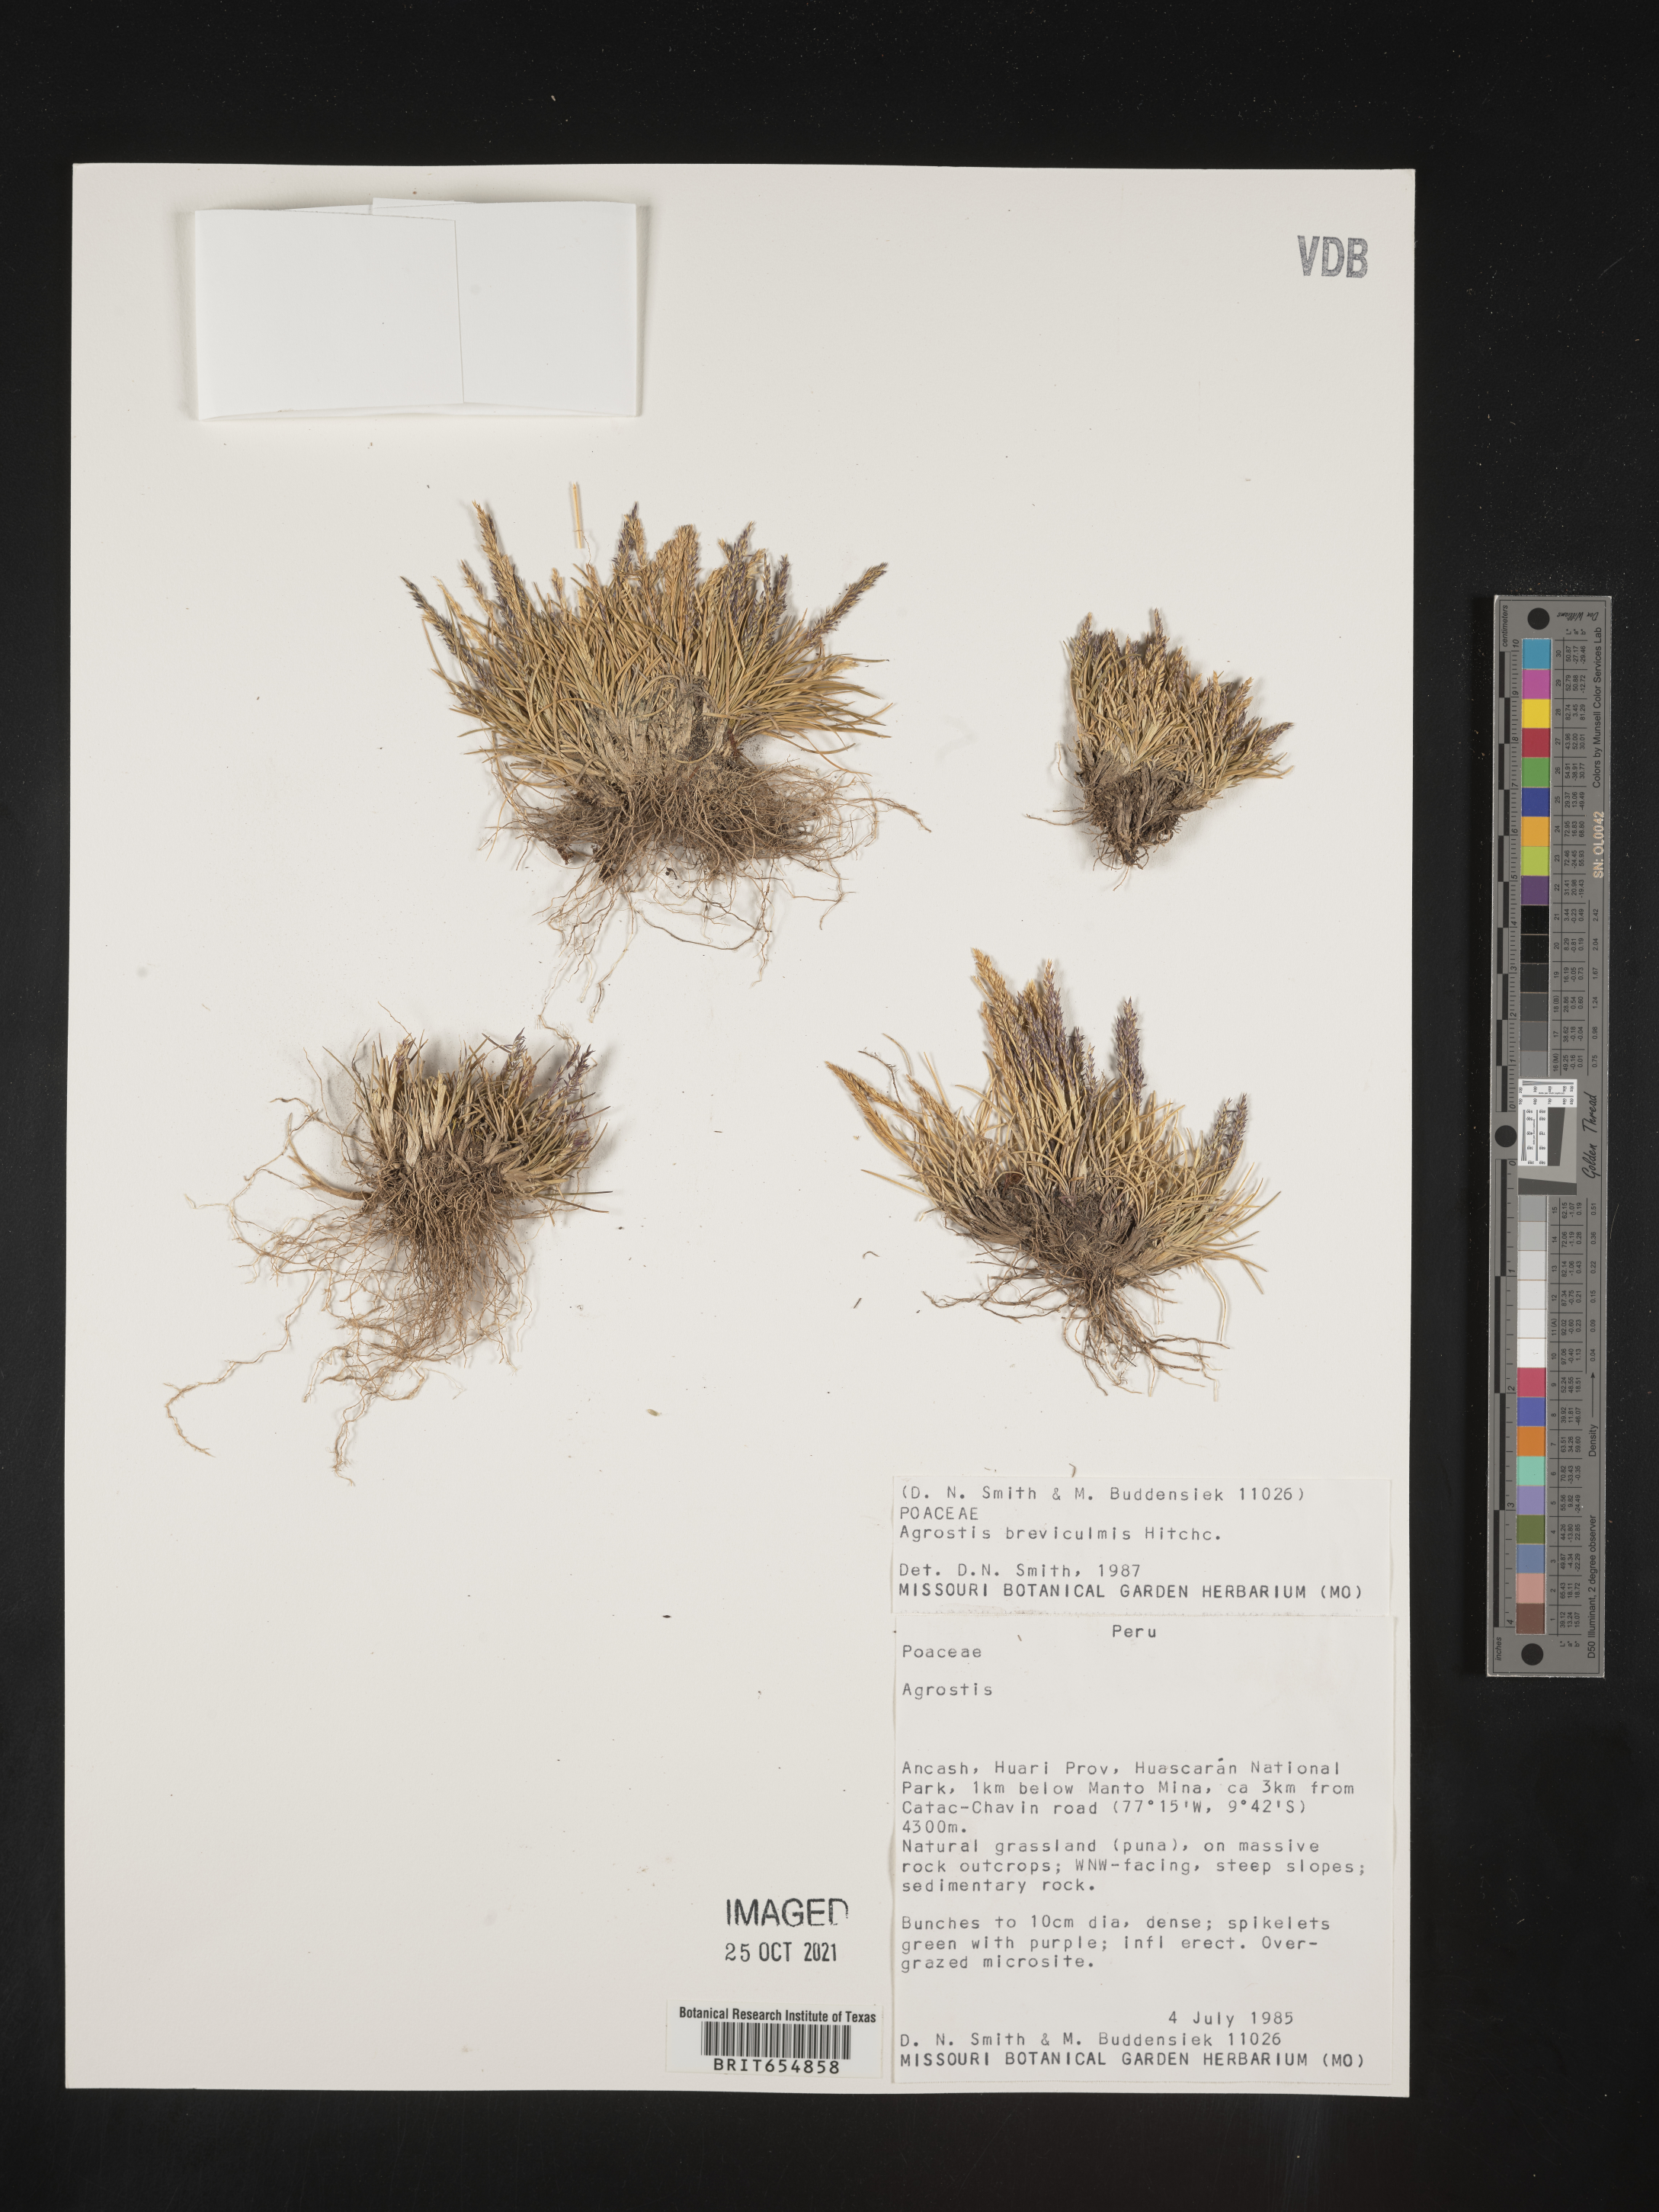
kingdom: Plantae
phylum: Tracheophyta
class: Liliopsida
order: Poales
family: Poaceae
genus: Agrostis
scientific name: Agrostis
